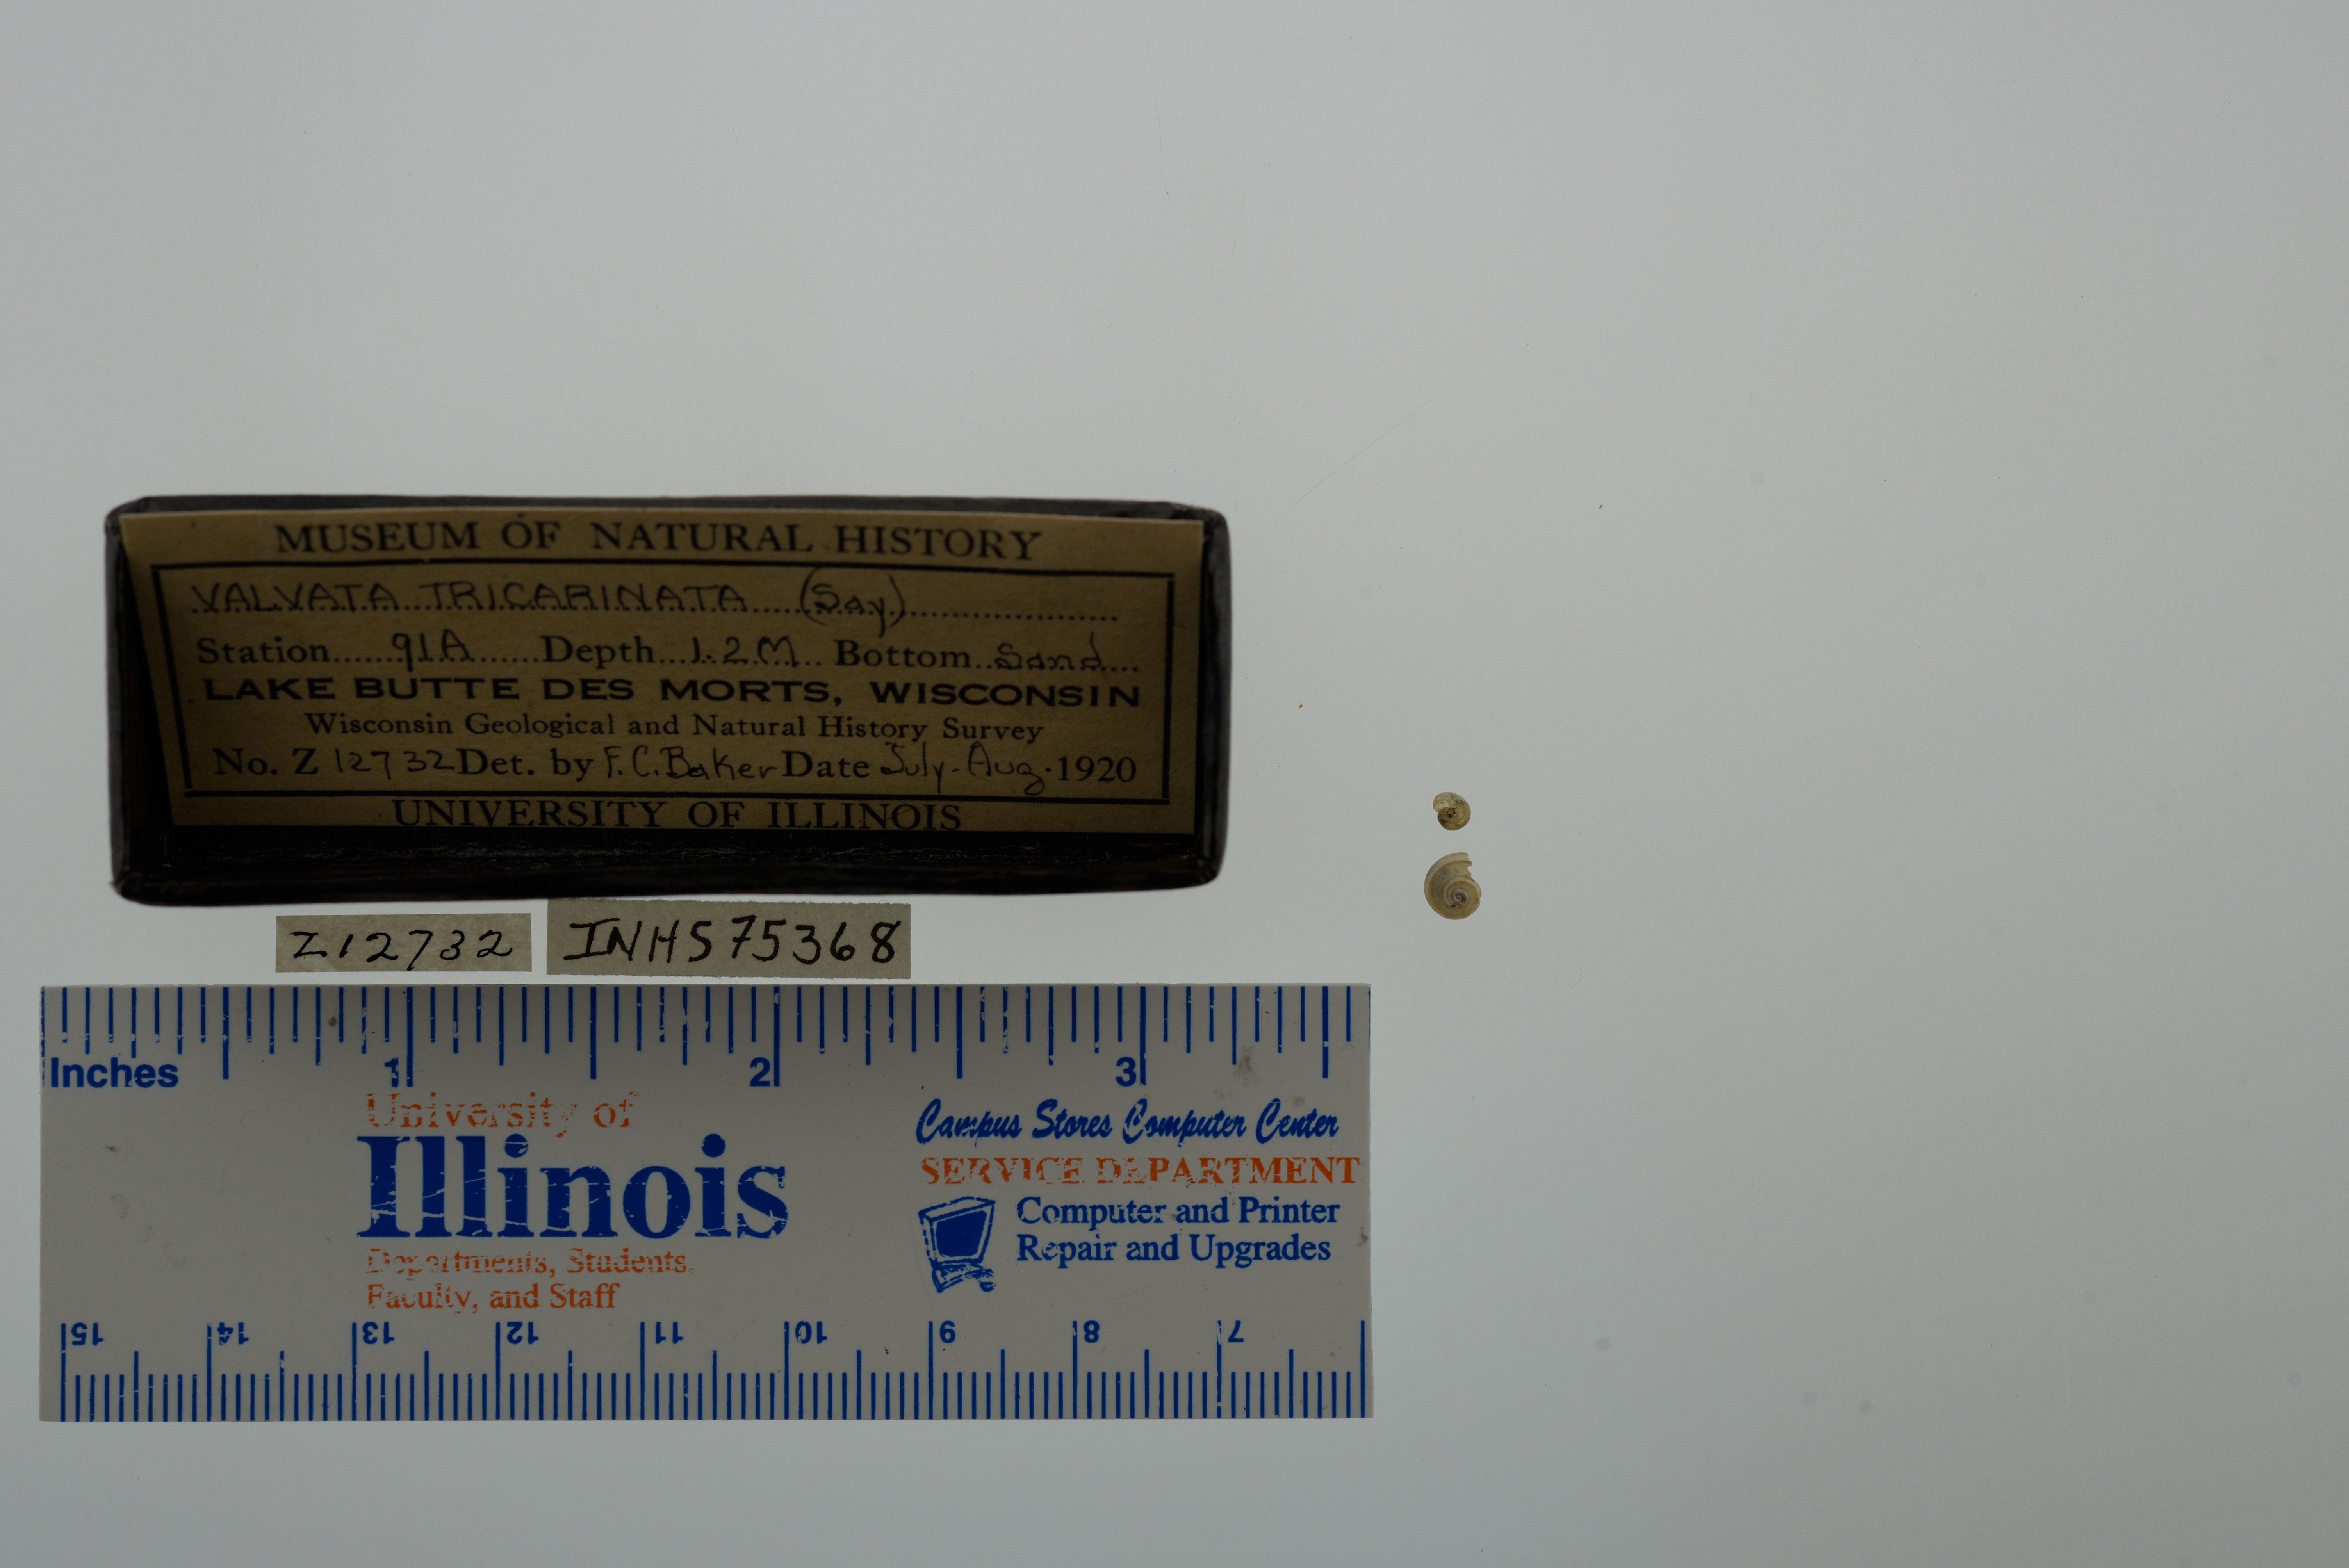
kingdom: Animalia
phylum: Mollusca
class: Gastropoda
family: Valvatidae
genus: Valvata
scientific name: Valvata tricarinata
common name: Three-ridge valvata
